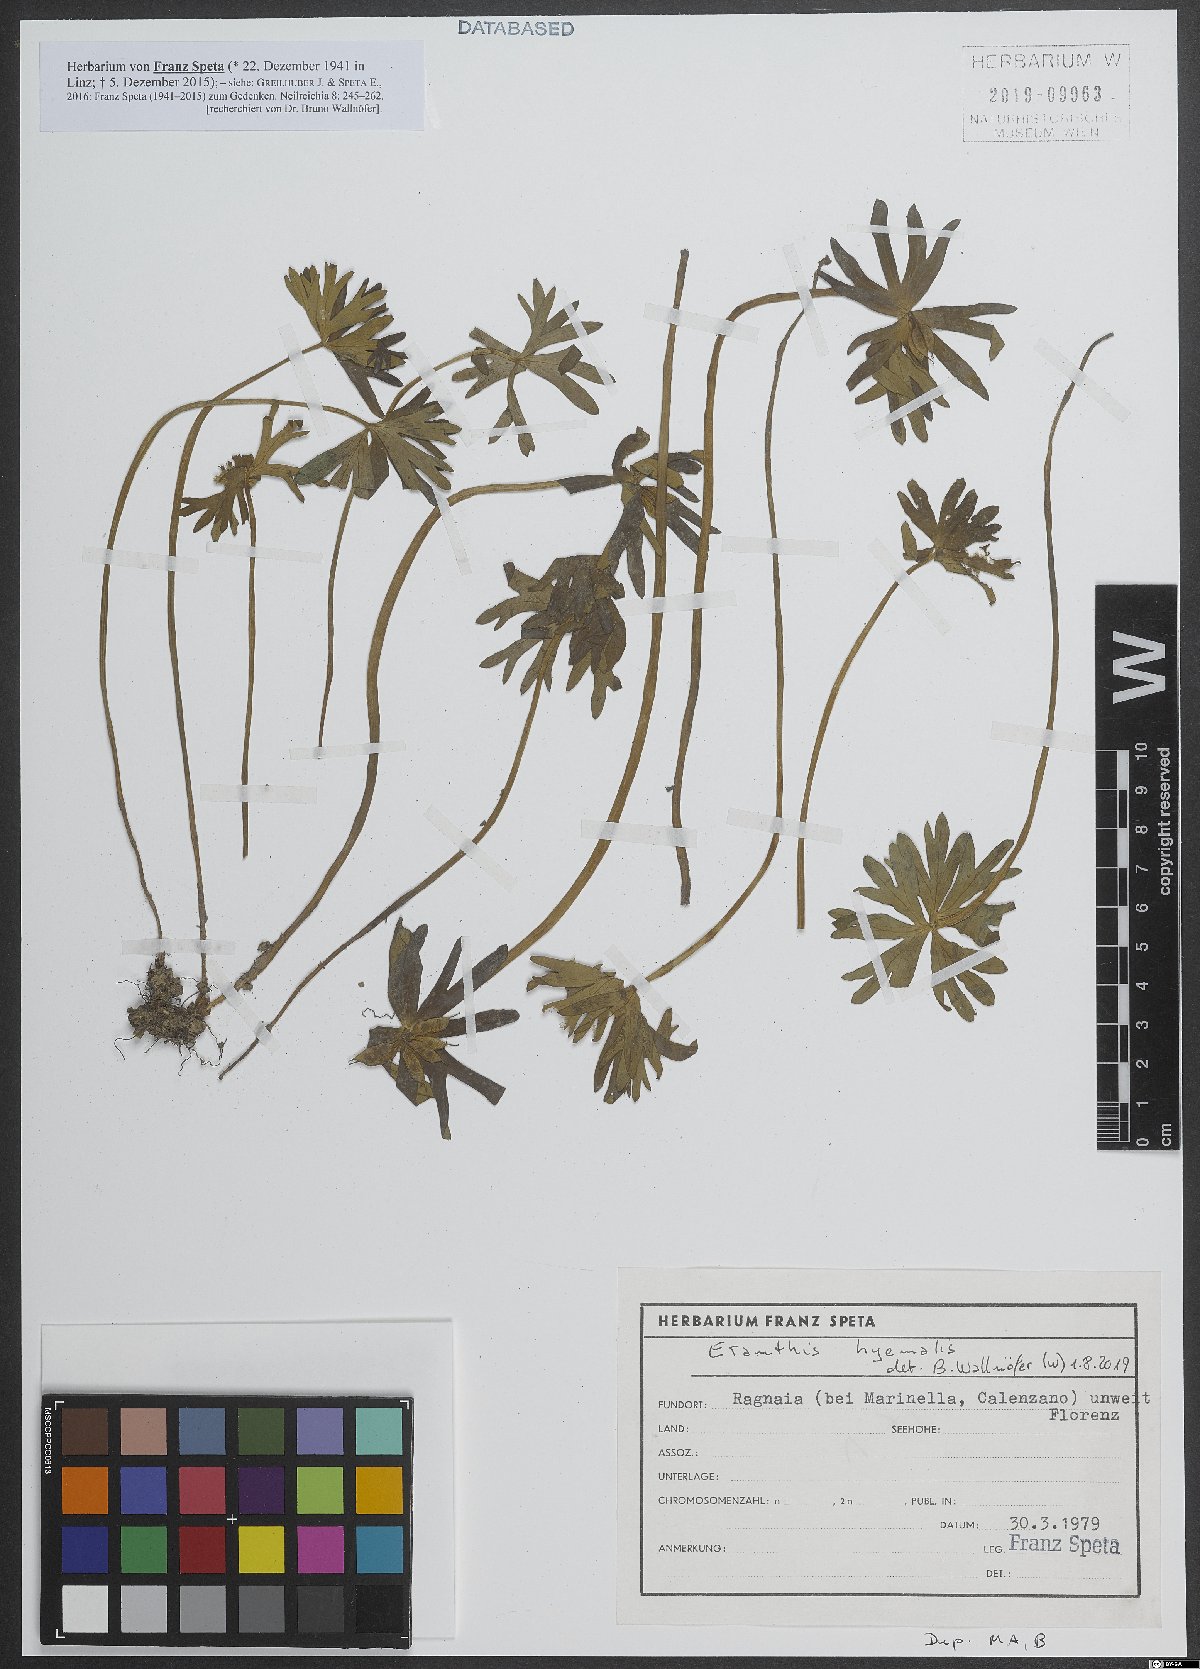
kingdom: Plantae
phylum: Tracheophyta
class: Magnoliopsida
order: Ranunculales
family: Ranunculaceae
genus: Eranthis
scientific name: Eranthis hyemalis
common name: Winter aconite
